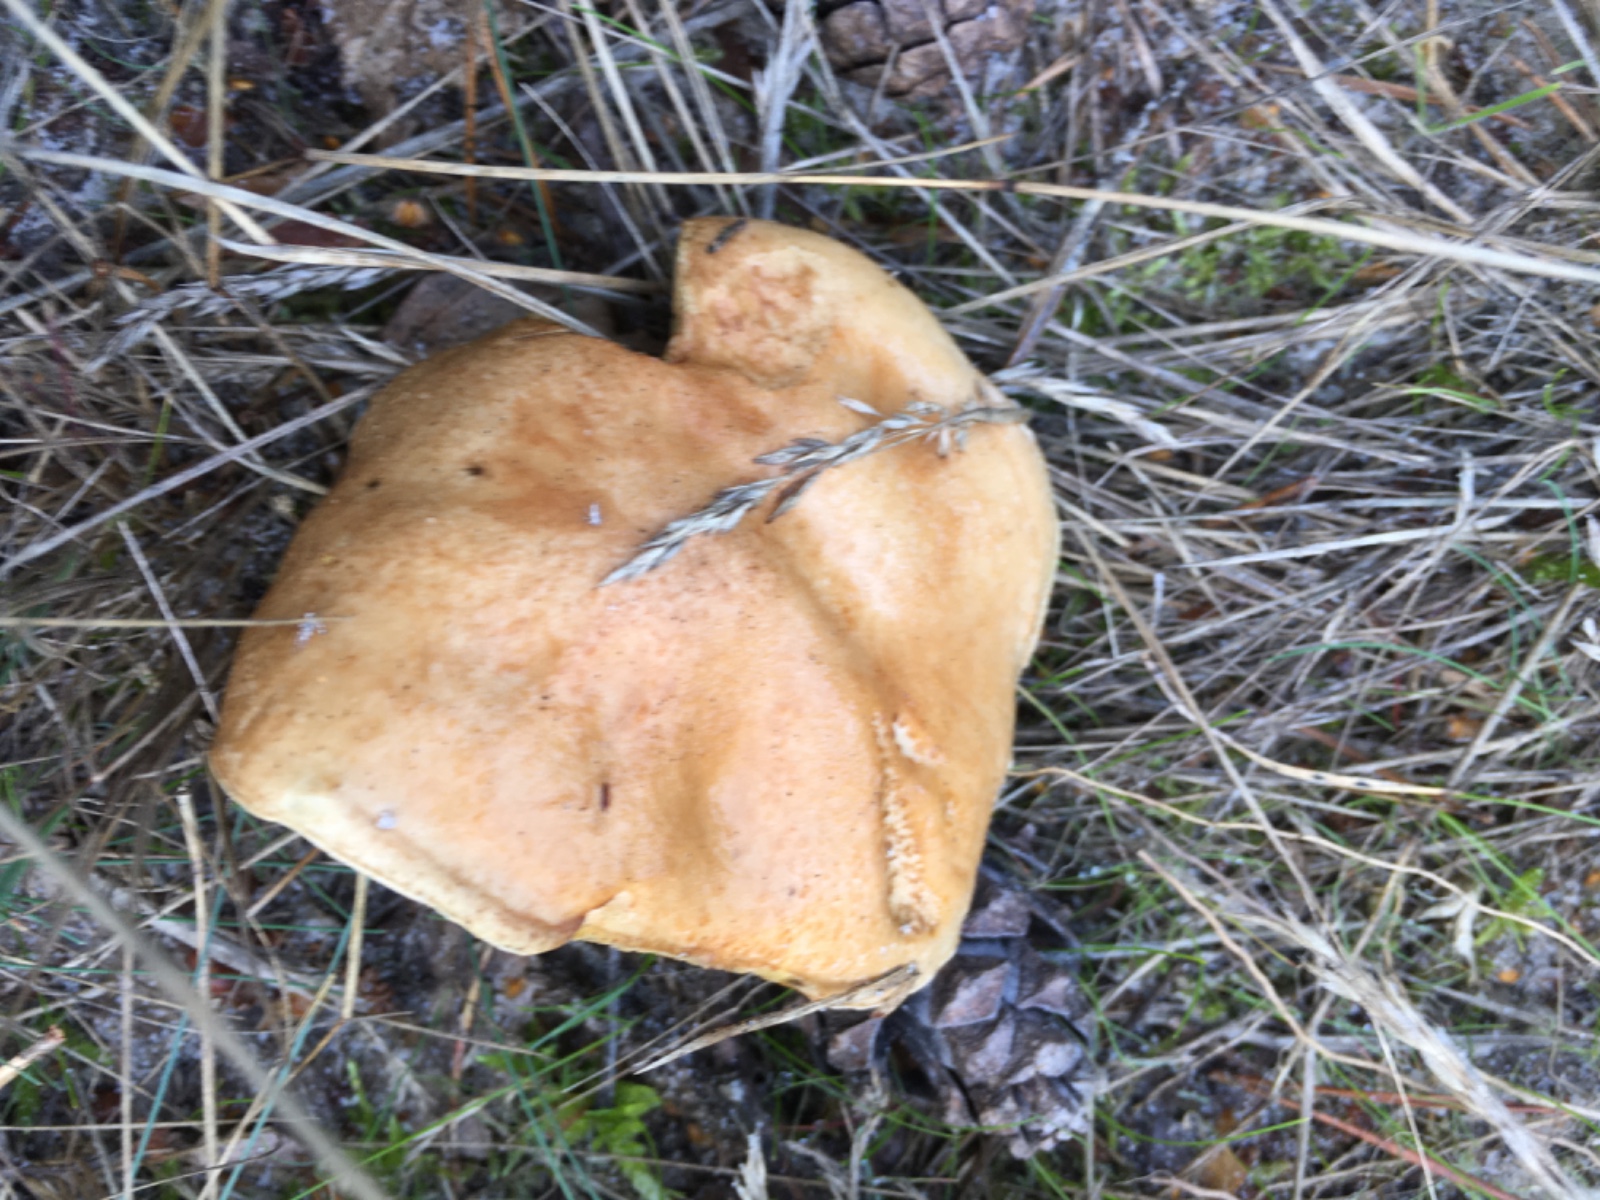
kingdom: Fungi
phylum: Basidiomycota
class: Agaricomycetes
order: Boletales
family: Suillaceae
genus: Suillus
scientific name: Suillus bovinus
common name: grovporet slimrørhat
